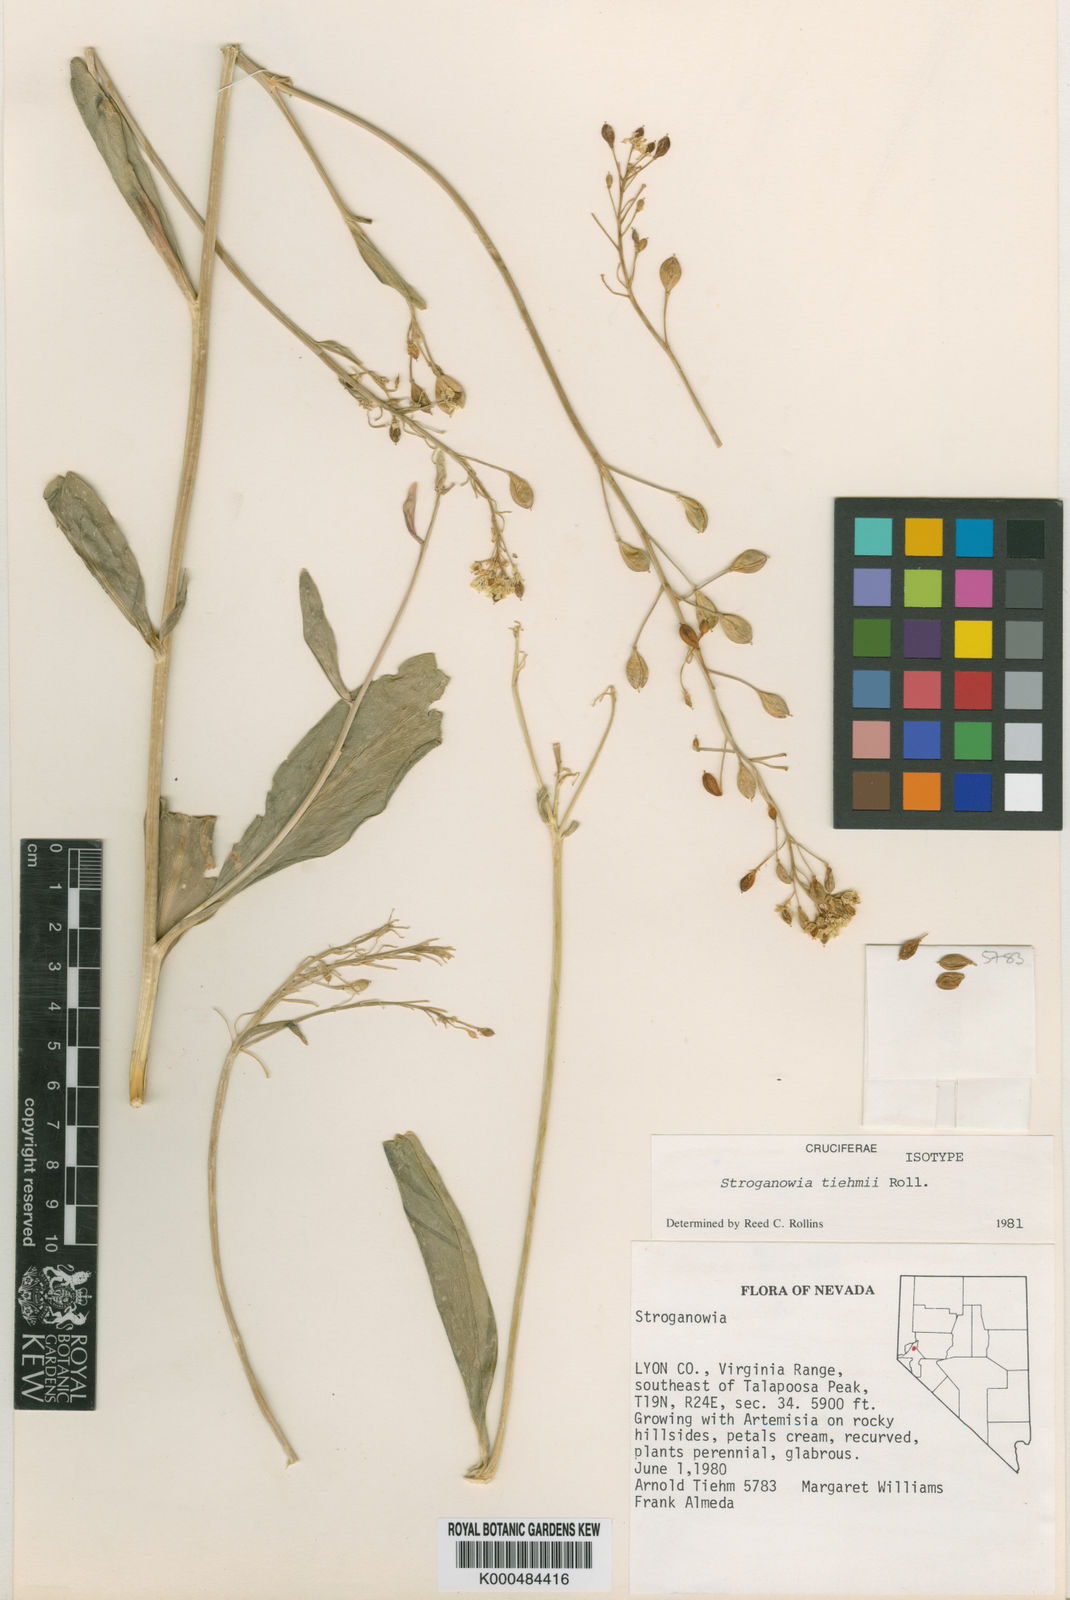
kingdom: Plantae
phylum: Tracheophyta
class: Magnoliopsida
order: Brassicales
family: Brassicaceae
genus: Lepidium
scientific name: Lepidium tiehmii
